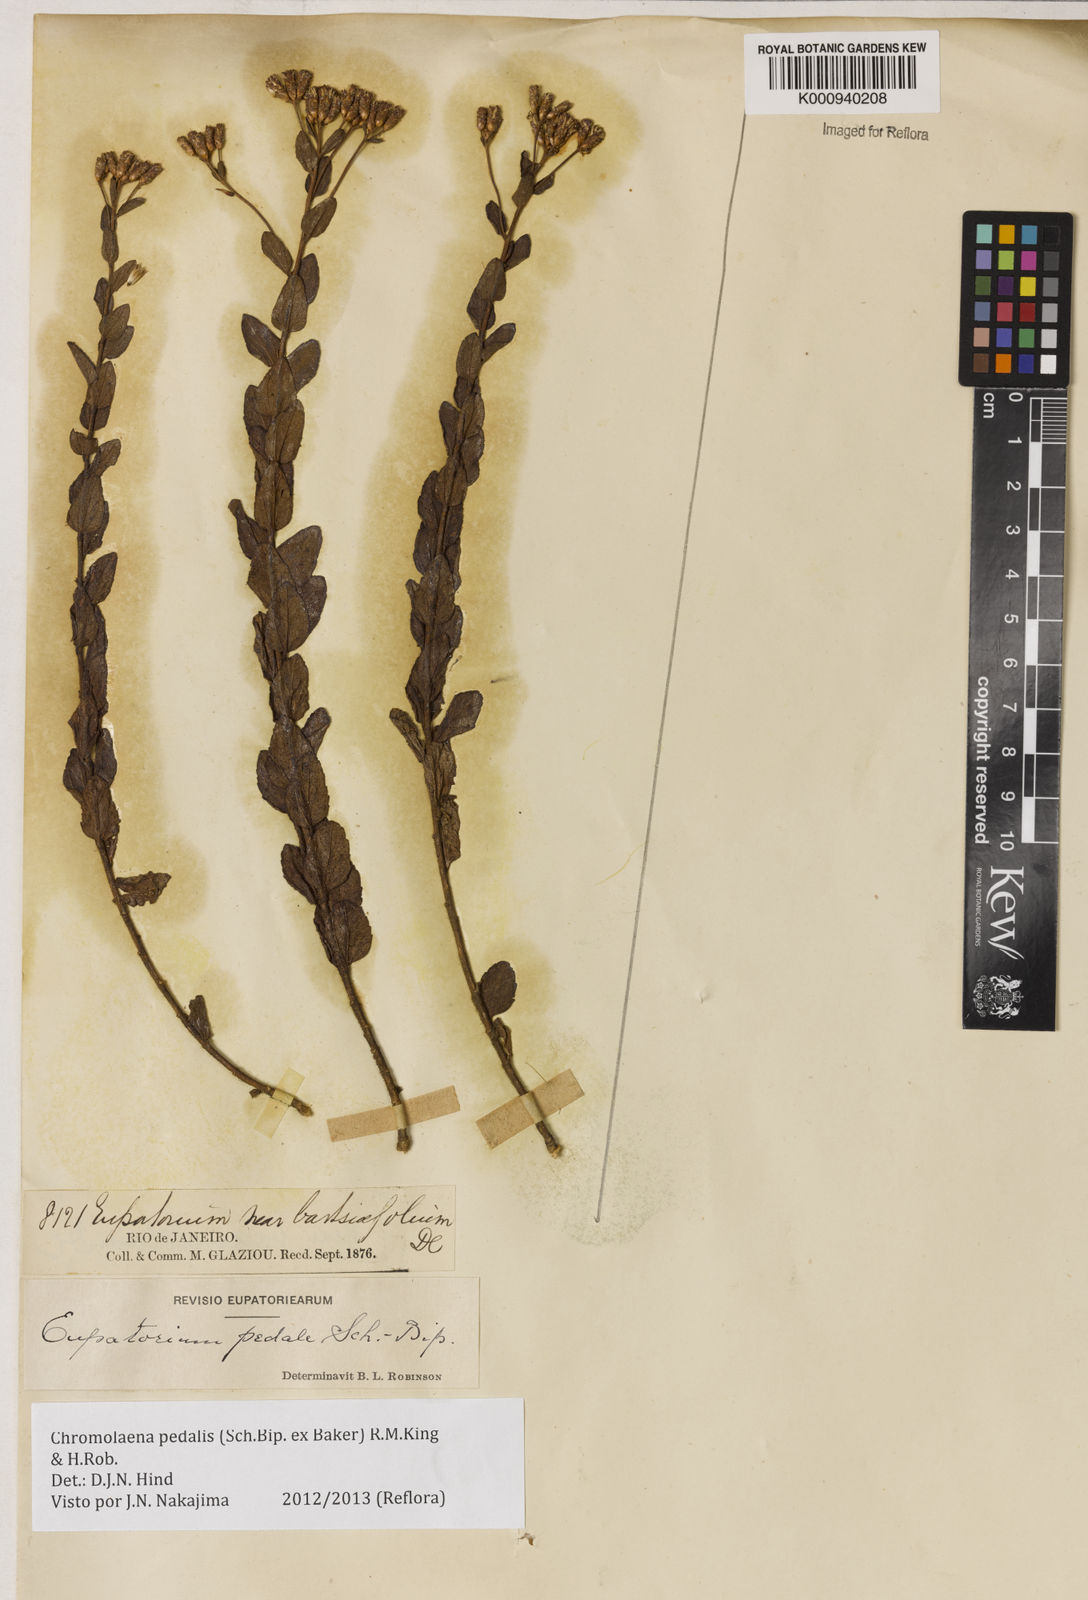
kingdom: Plantae
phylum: Tracheophyta
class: Magnoliopsida
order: Asterales
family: Asteraceae
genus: Chromolaena
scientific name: Chromolaena pedalis
